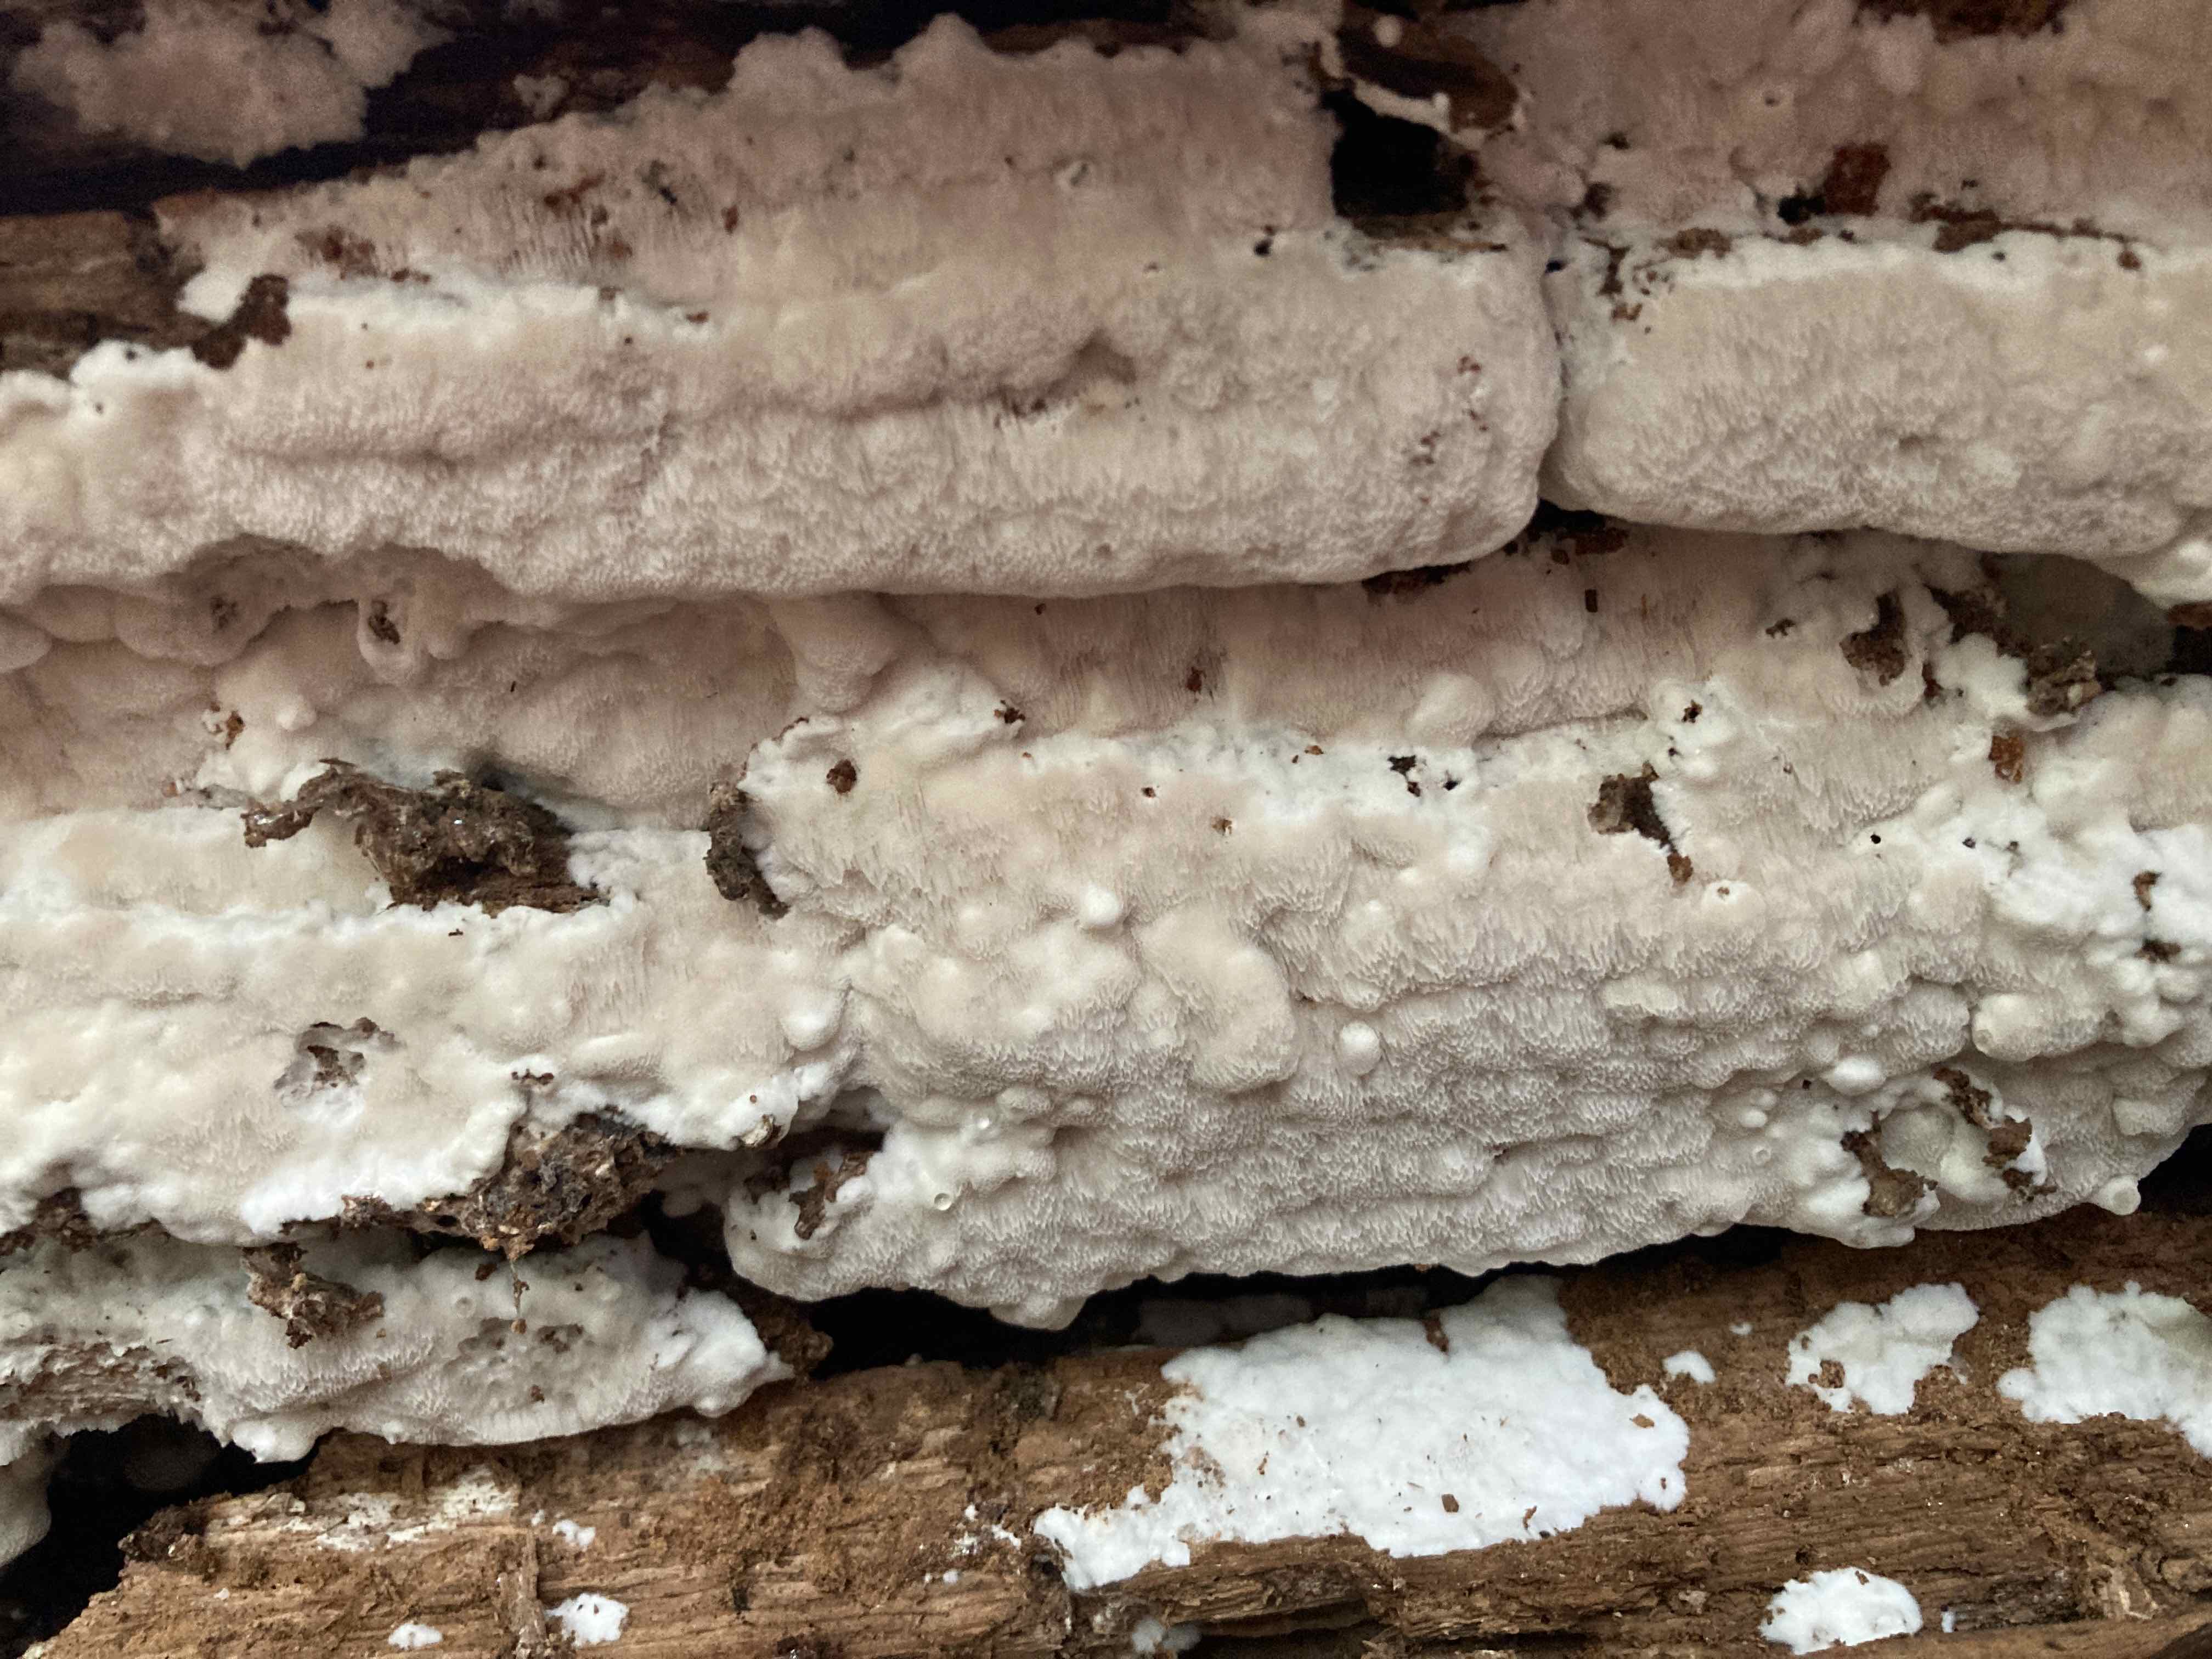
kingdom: Fungi
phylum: Basidiomycota
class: Agaricomycetes
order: Polyporales
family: Gelatoporiaceae
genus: Cinereomyces
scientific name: Cinereomyces lindbladii
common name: almindelig gråporesvamp
